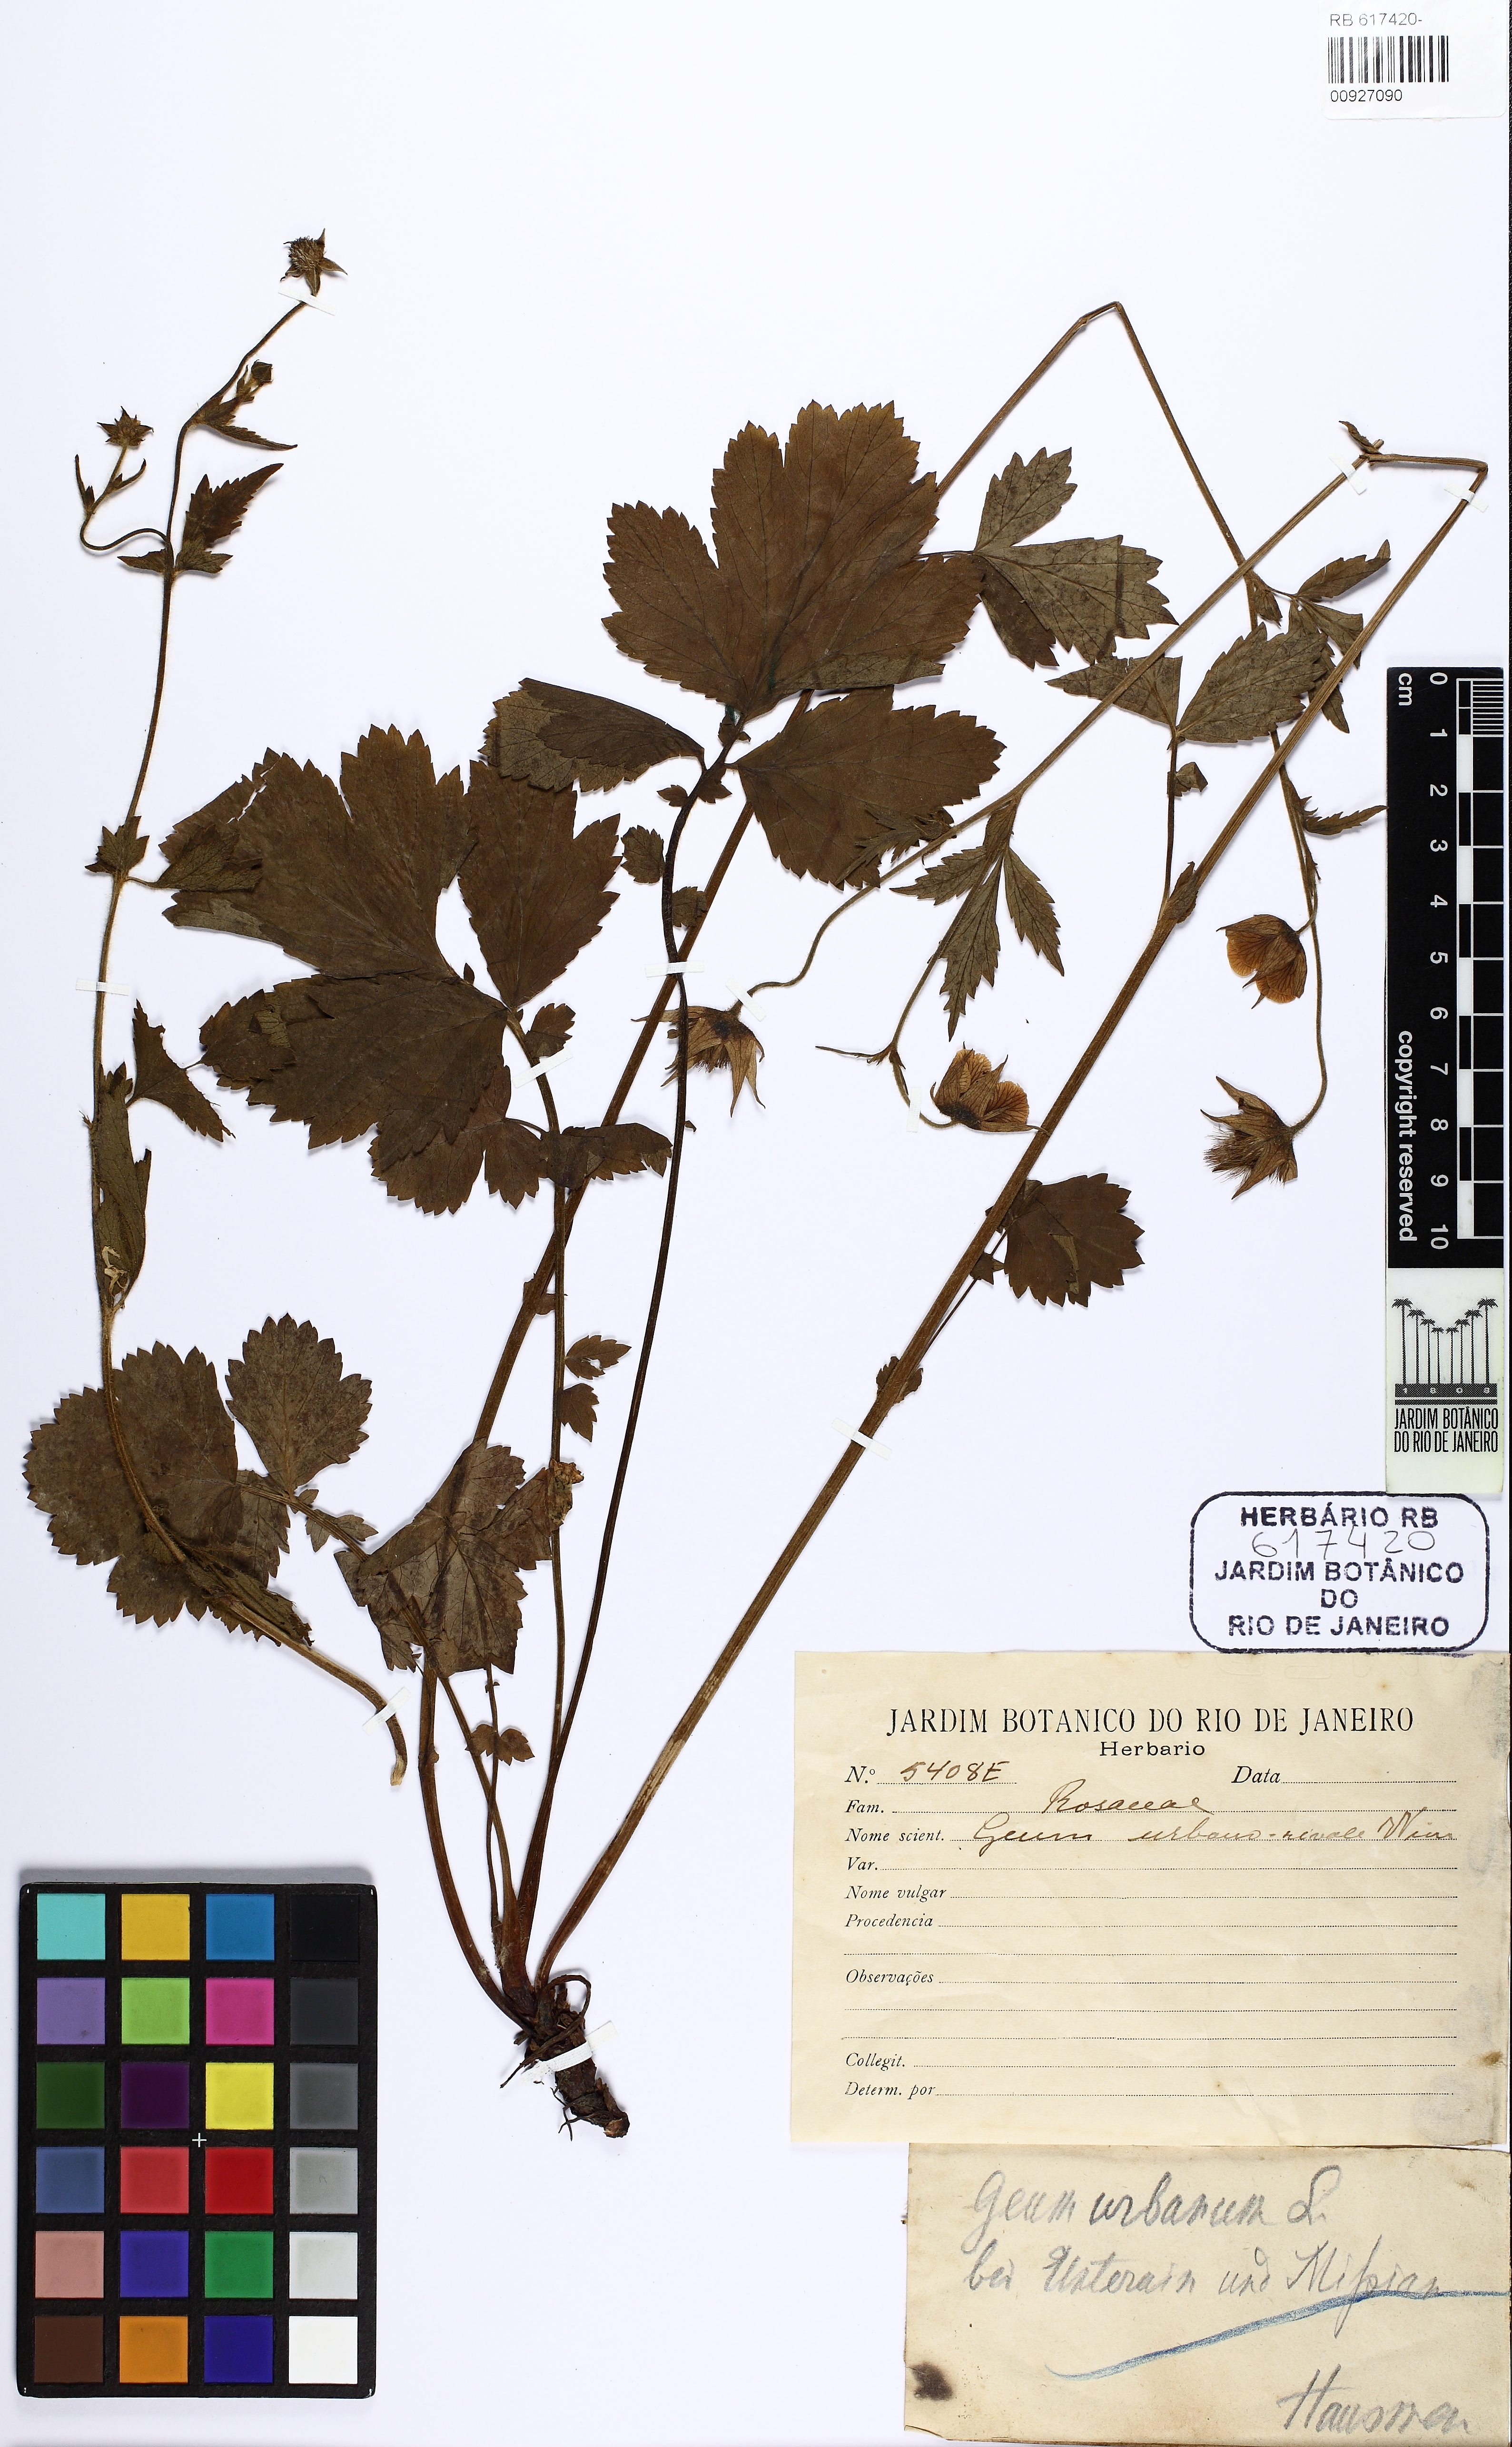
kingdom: Plantae
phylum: Tracheophyta
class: Magnoliopsida
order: Rosales
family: Rosaceae
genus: Geum
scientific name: Geum urbanum
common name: Wood avens
